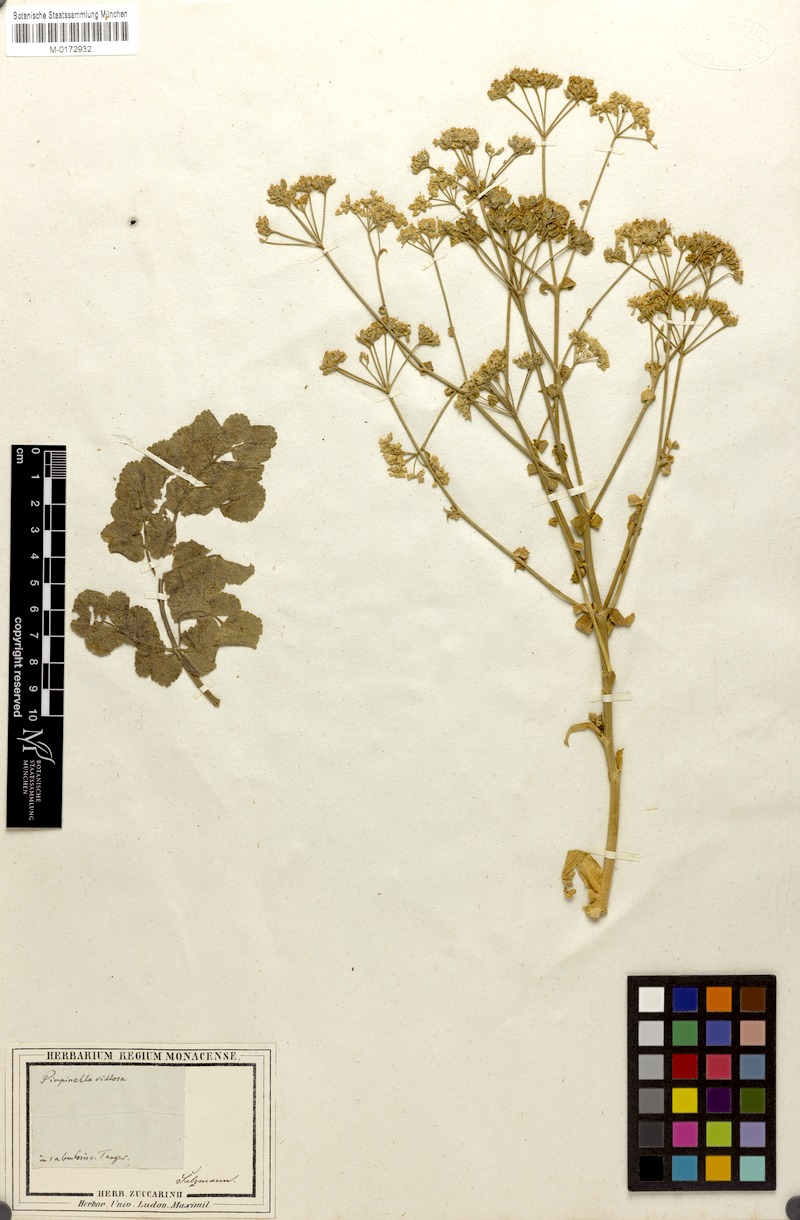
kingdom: Plantae
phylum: Tracheophyta
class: Magnoliopsida
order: Apiales
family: Apiaceae
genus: Pimpinella
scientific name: Pimpinella villosa
